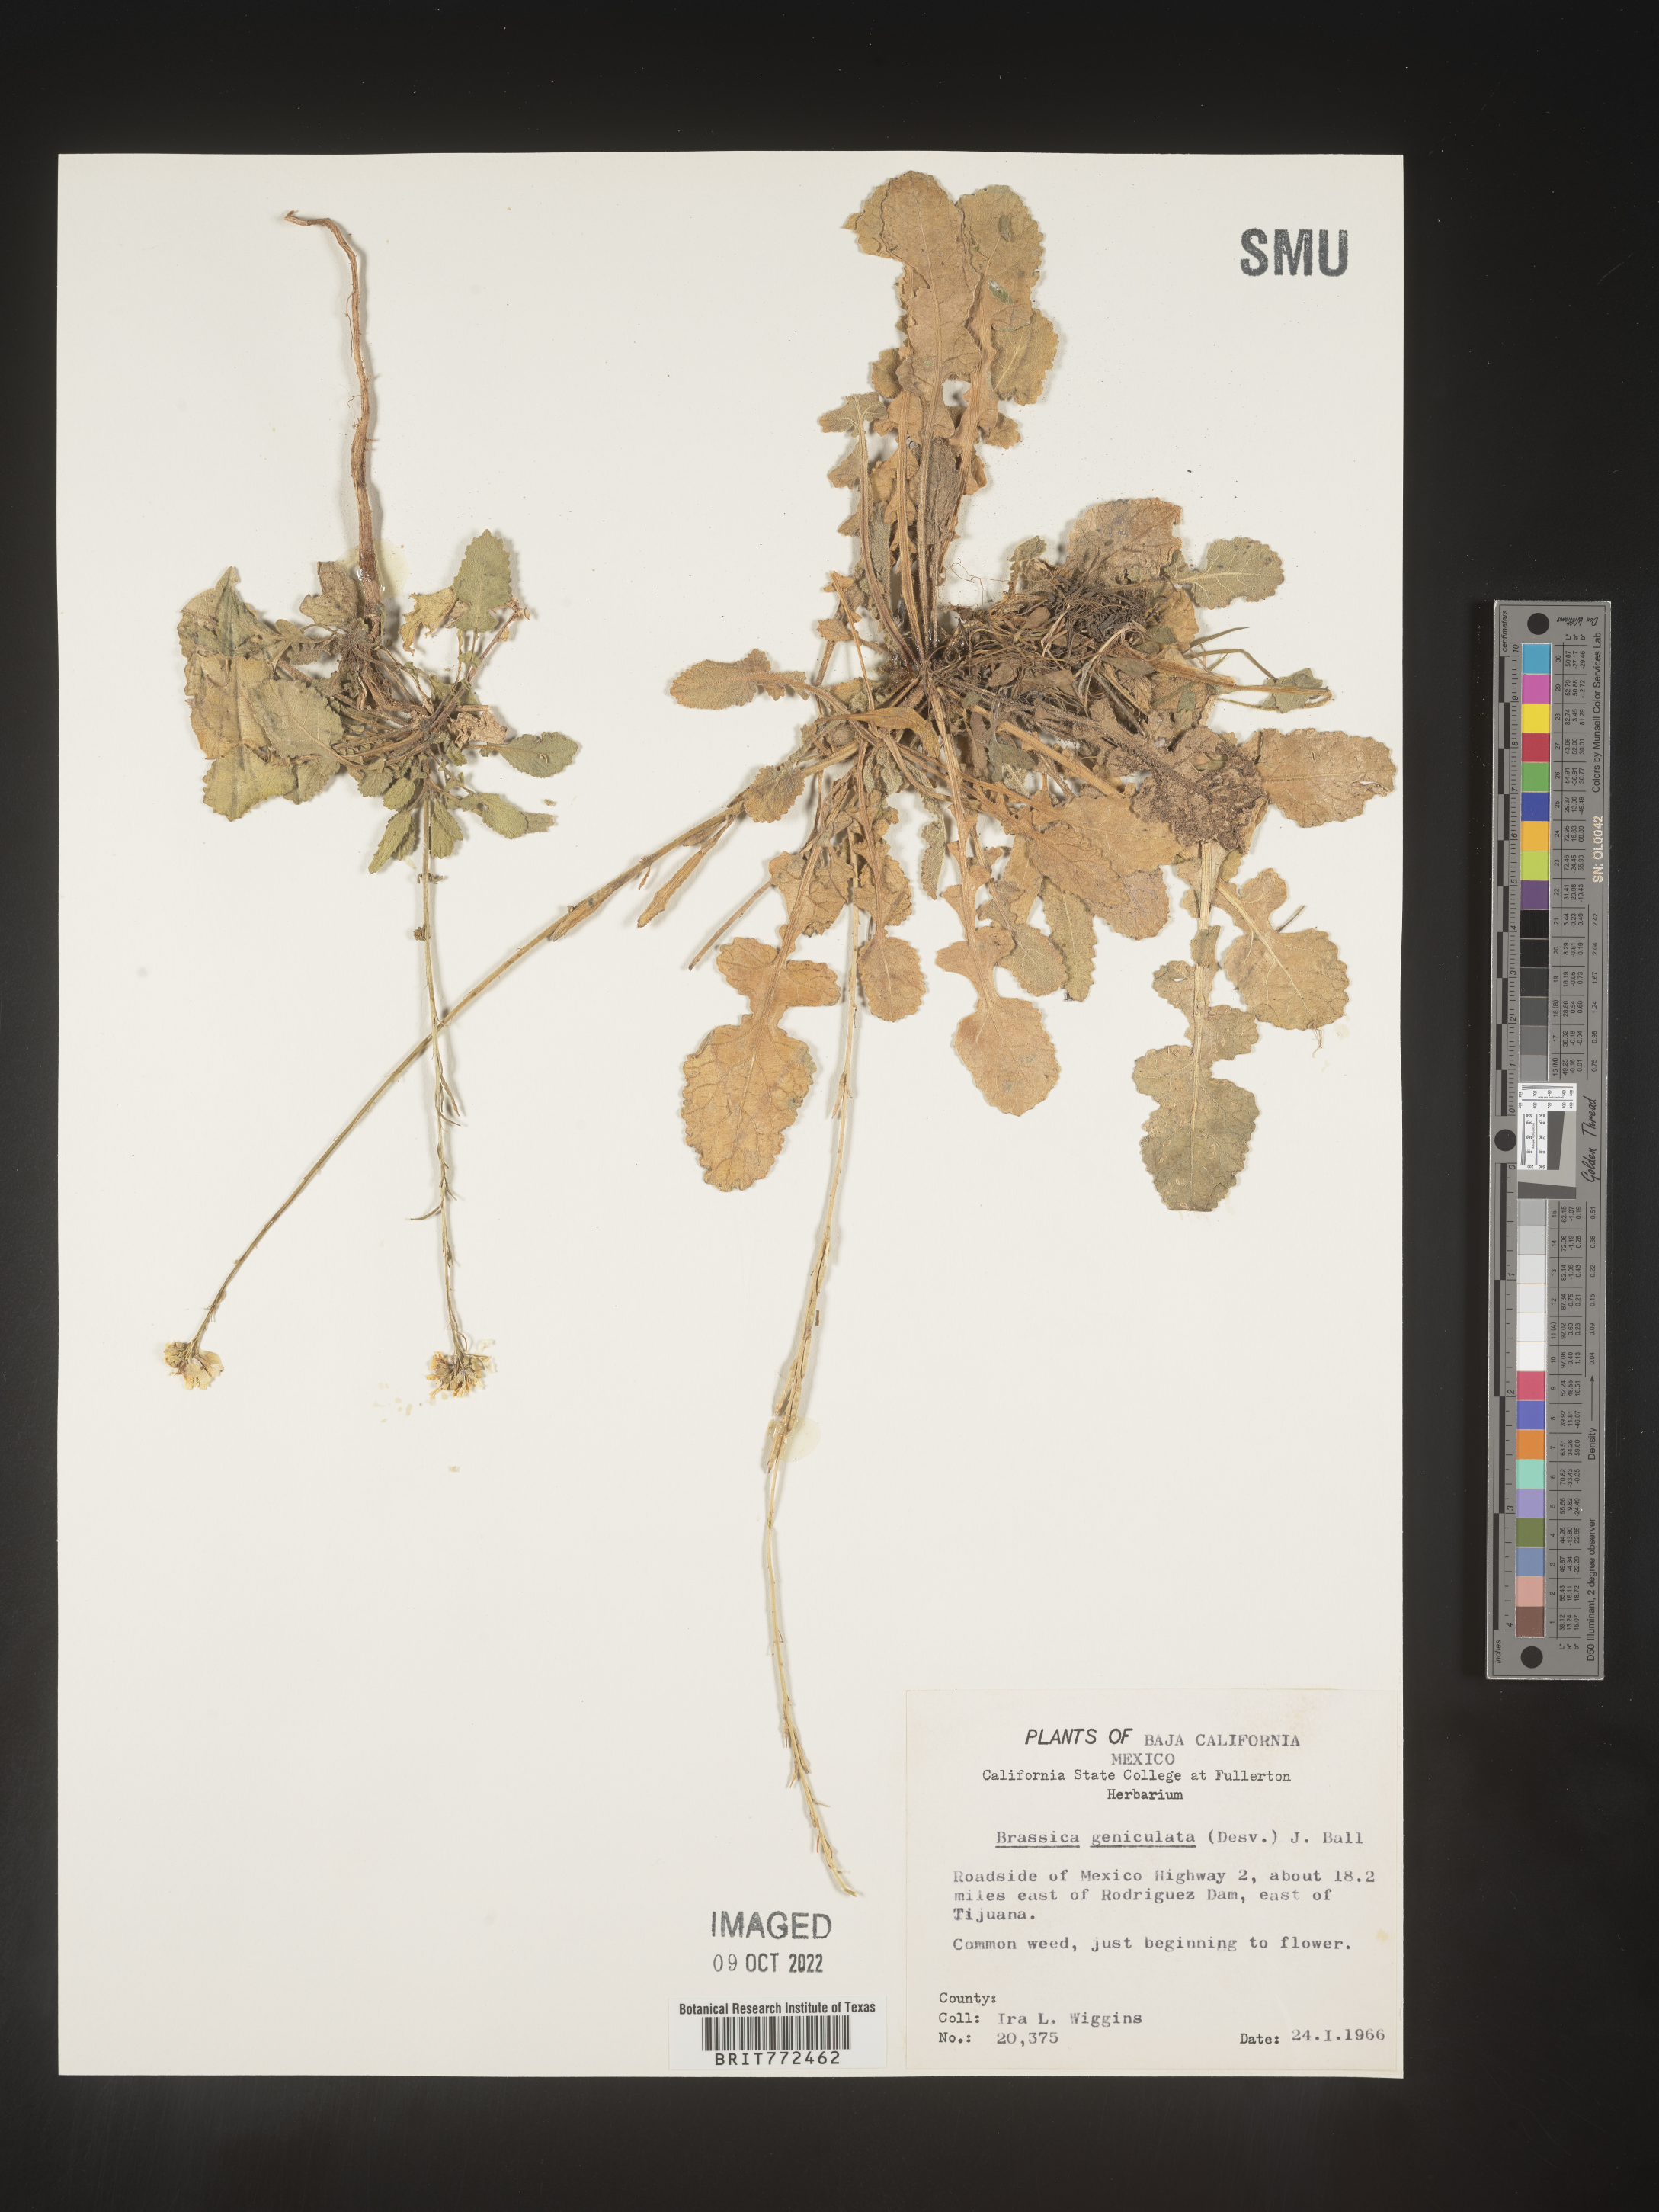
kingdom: Plantae
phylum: Tracheophyta
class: Magnoliopsida
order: Brassicales
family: Brassicaceae
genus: Brassica
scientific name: Brassica
